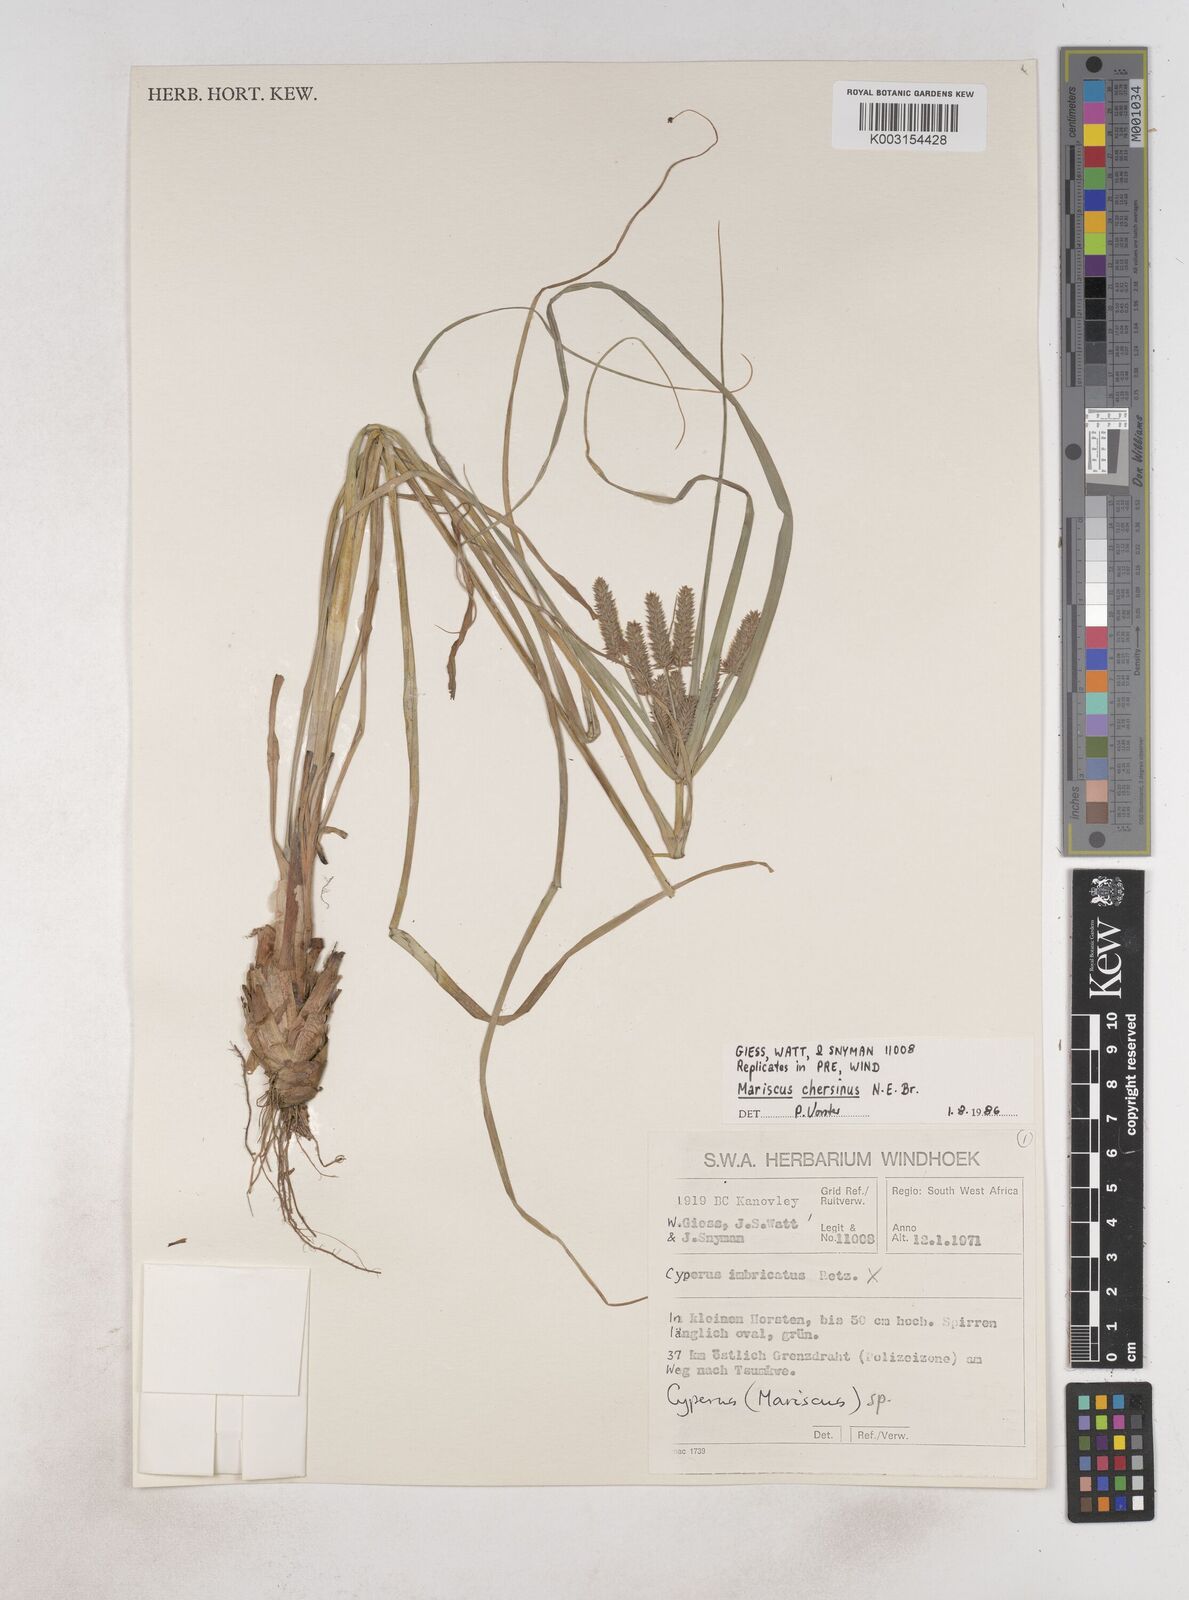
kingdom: Plantae
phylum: Tracheophyta
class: Liliopsida
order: Poales
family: Cyperaceae
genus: Cyperus
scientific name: Cyperus chersinus
